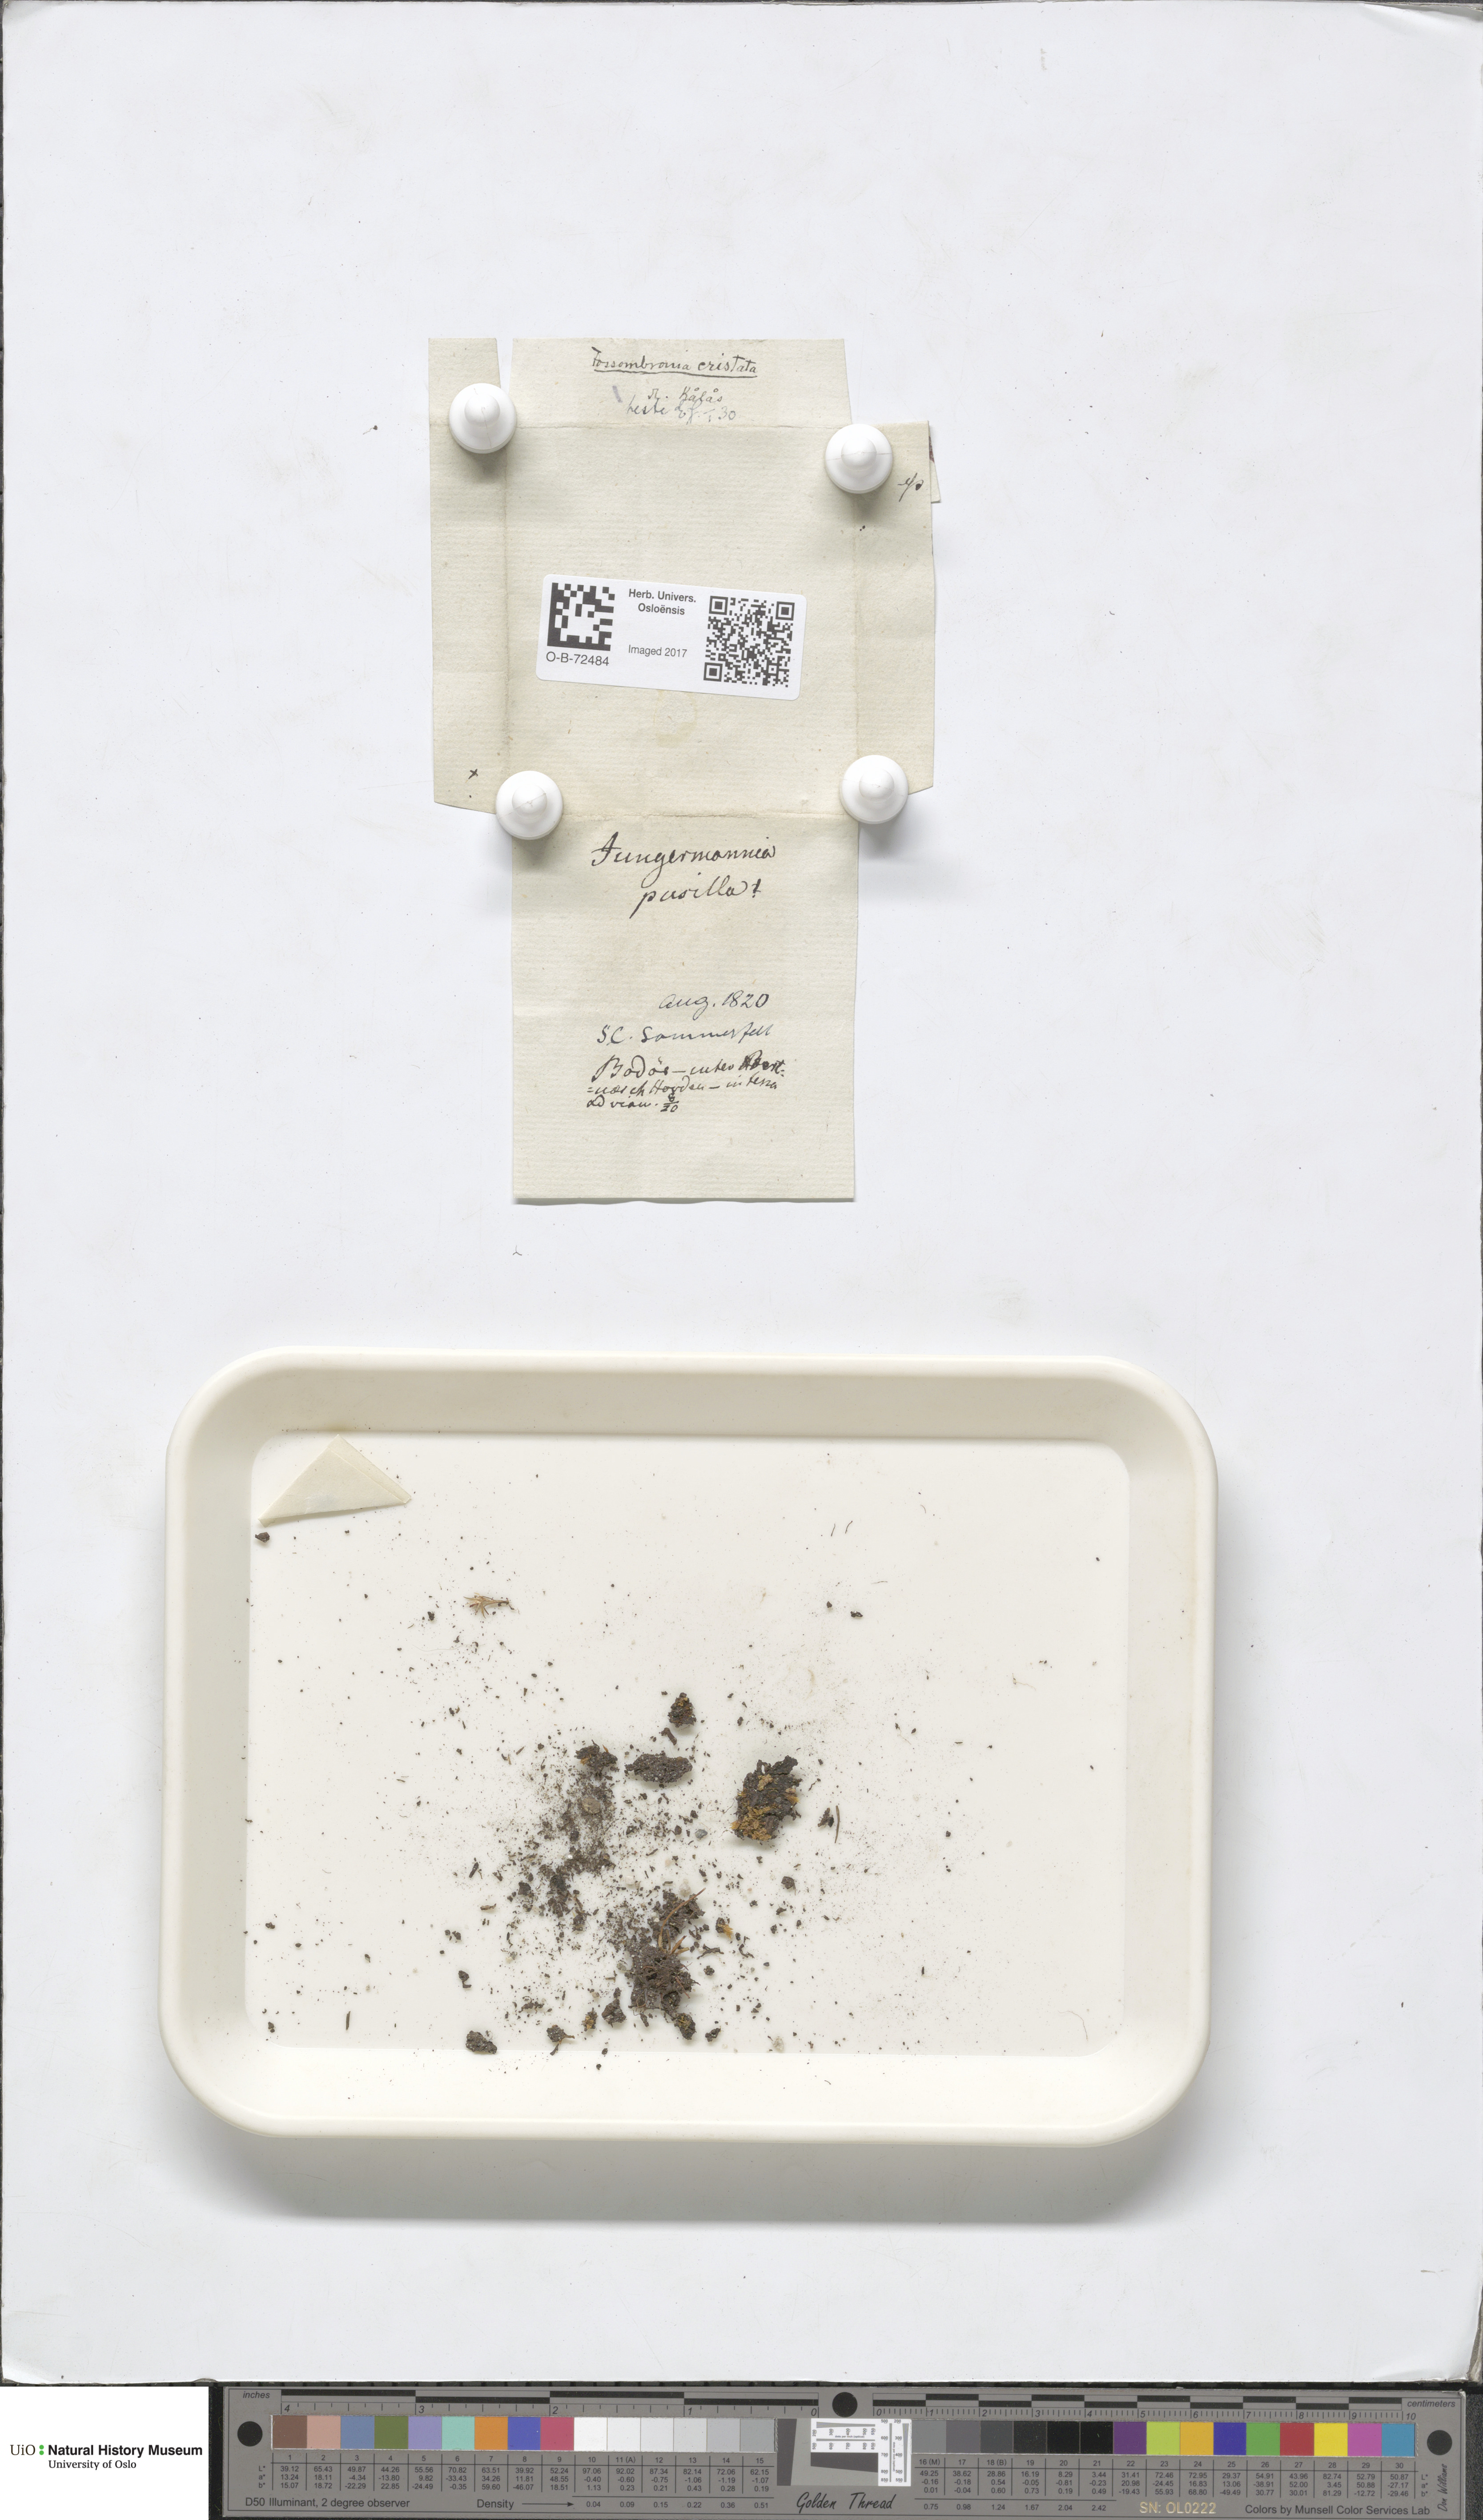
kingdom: Plantae
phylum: Marchantiophyta
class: Jungermanniopsida
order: Fossombroniales
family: Fossombroniaceae
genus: Fossombronia
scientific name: Fossombronia pusilla
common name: Common frillwort
